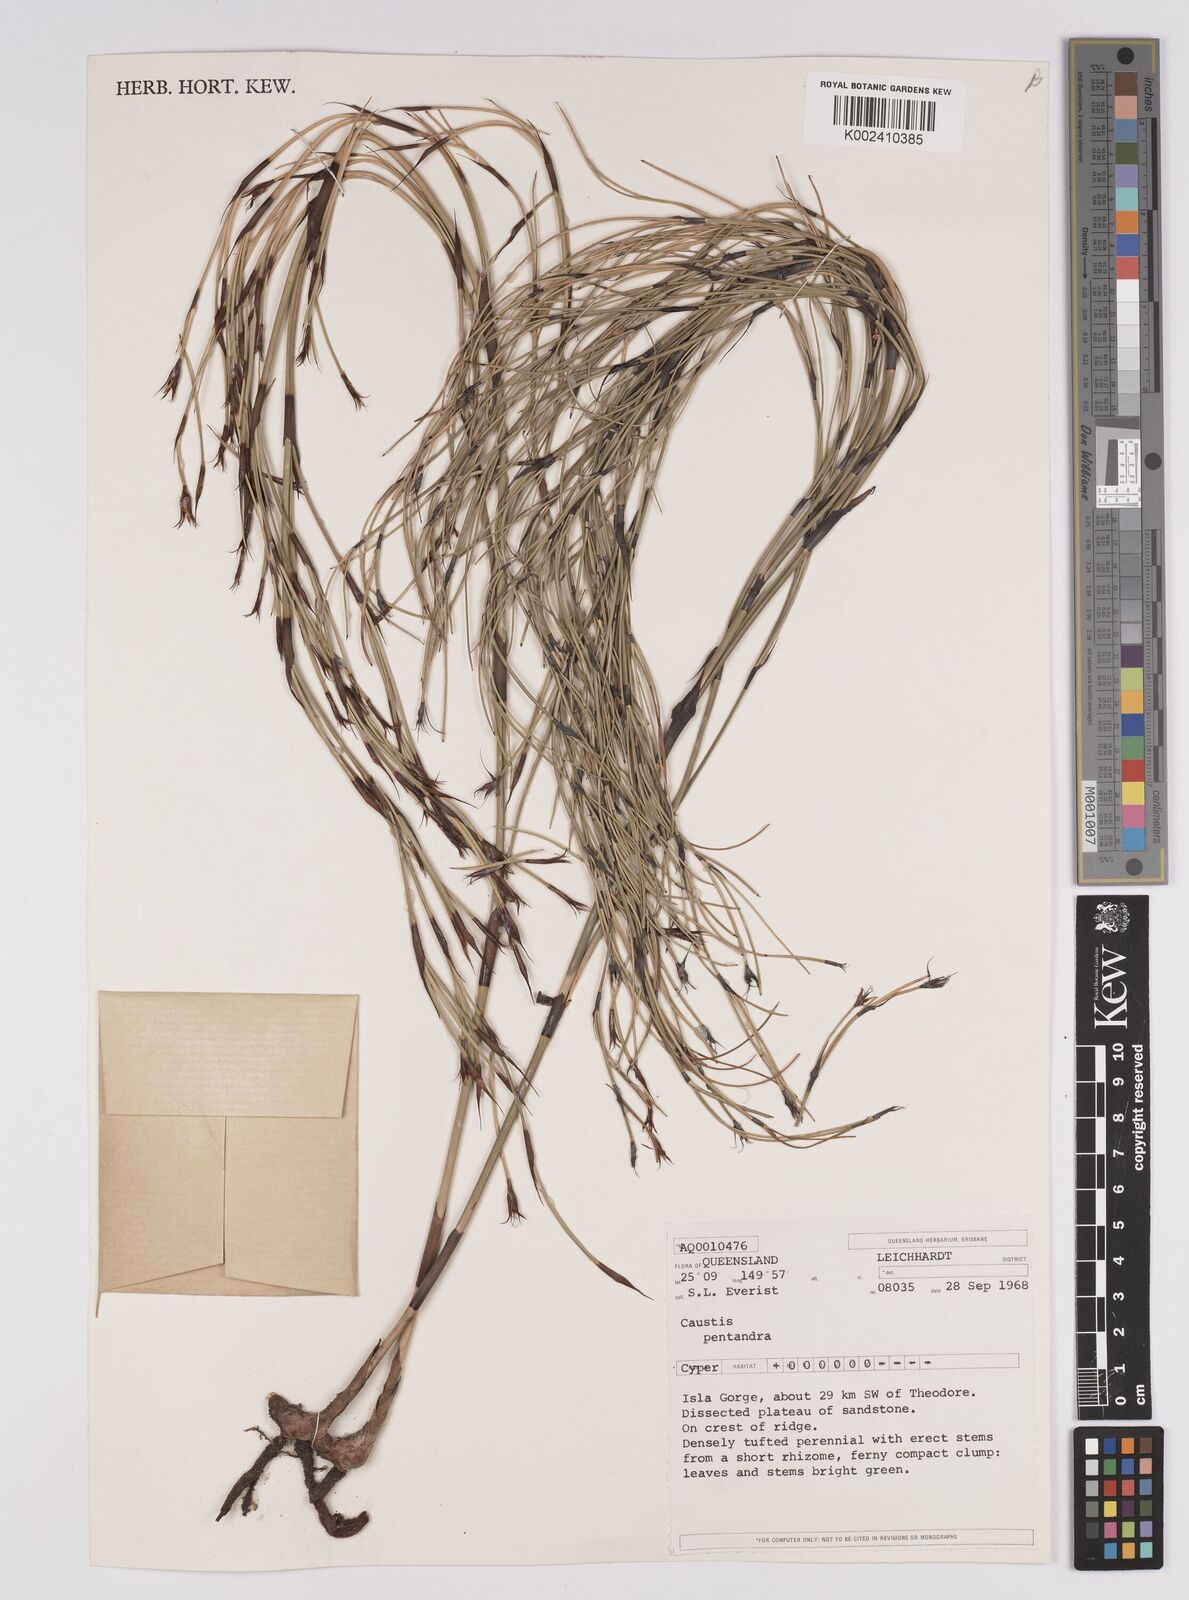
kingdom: Plantae
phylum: Tracheophyta
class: Liliopsida
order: Poales
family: Cyperaceae
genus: Caustis
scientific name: Caustis pentandra
